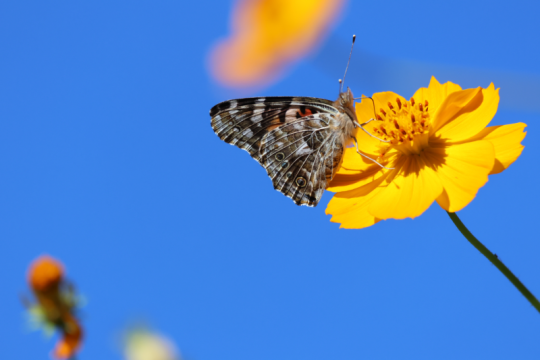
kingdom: Animalia
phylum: Arthropoda
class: Insecta
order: Lepidoptera
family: Nymphalidae
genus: Vanessa
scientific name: Vanessa cardui
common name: Painted Lady
